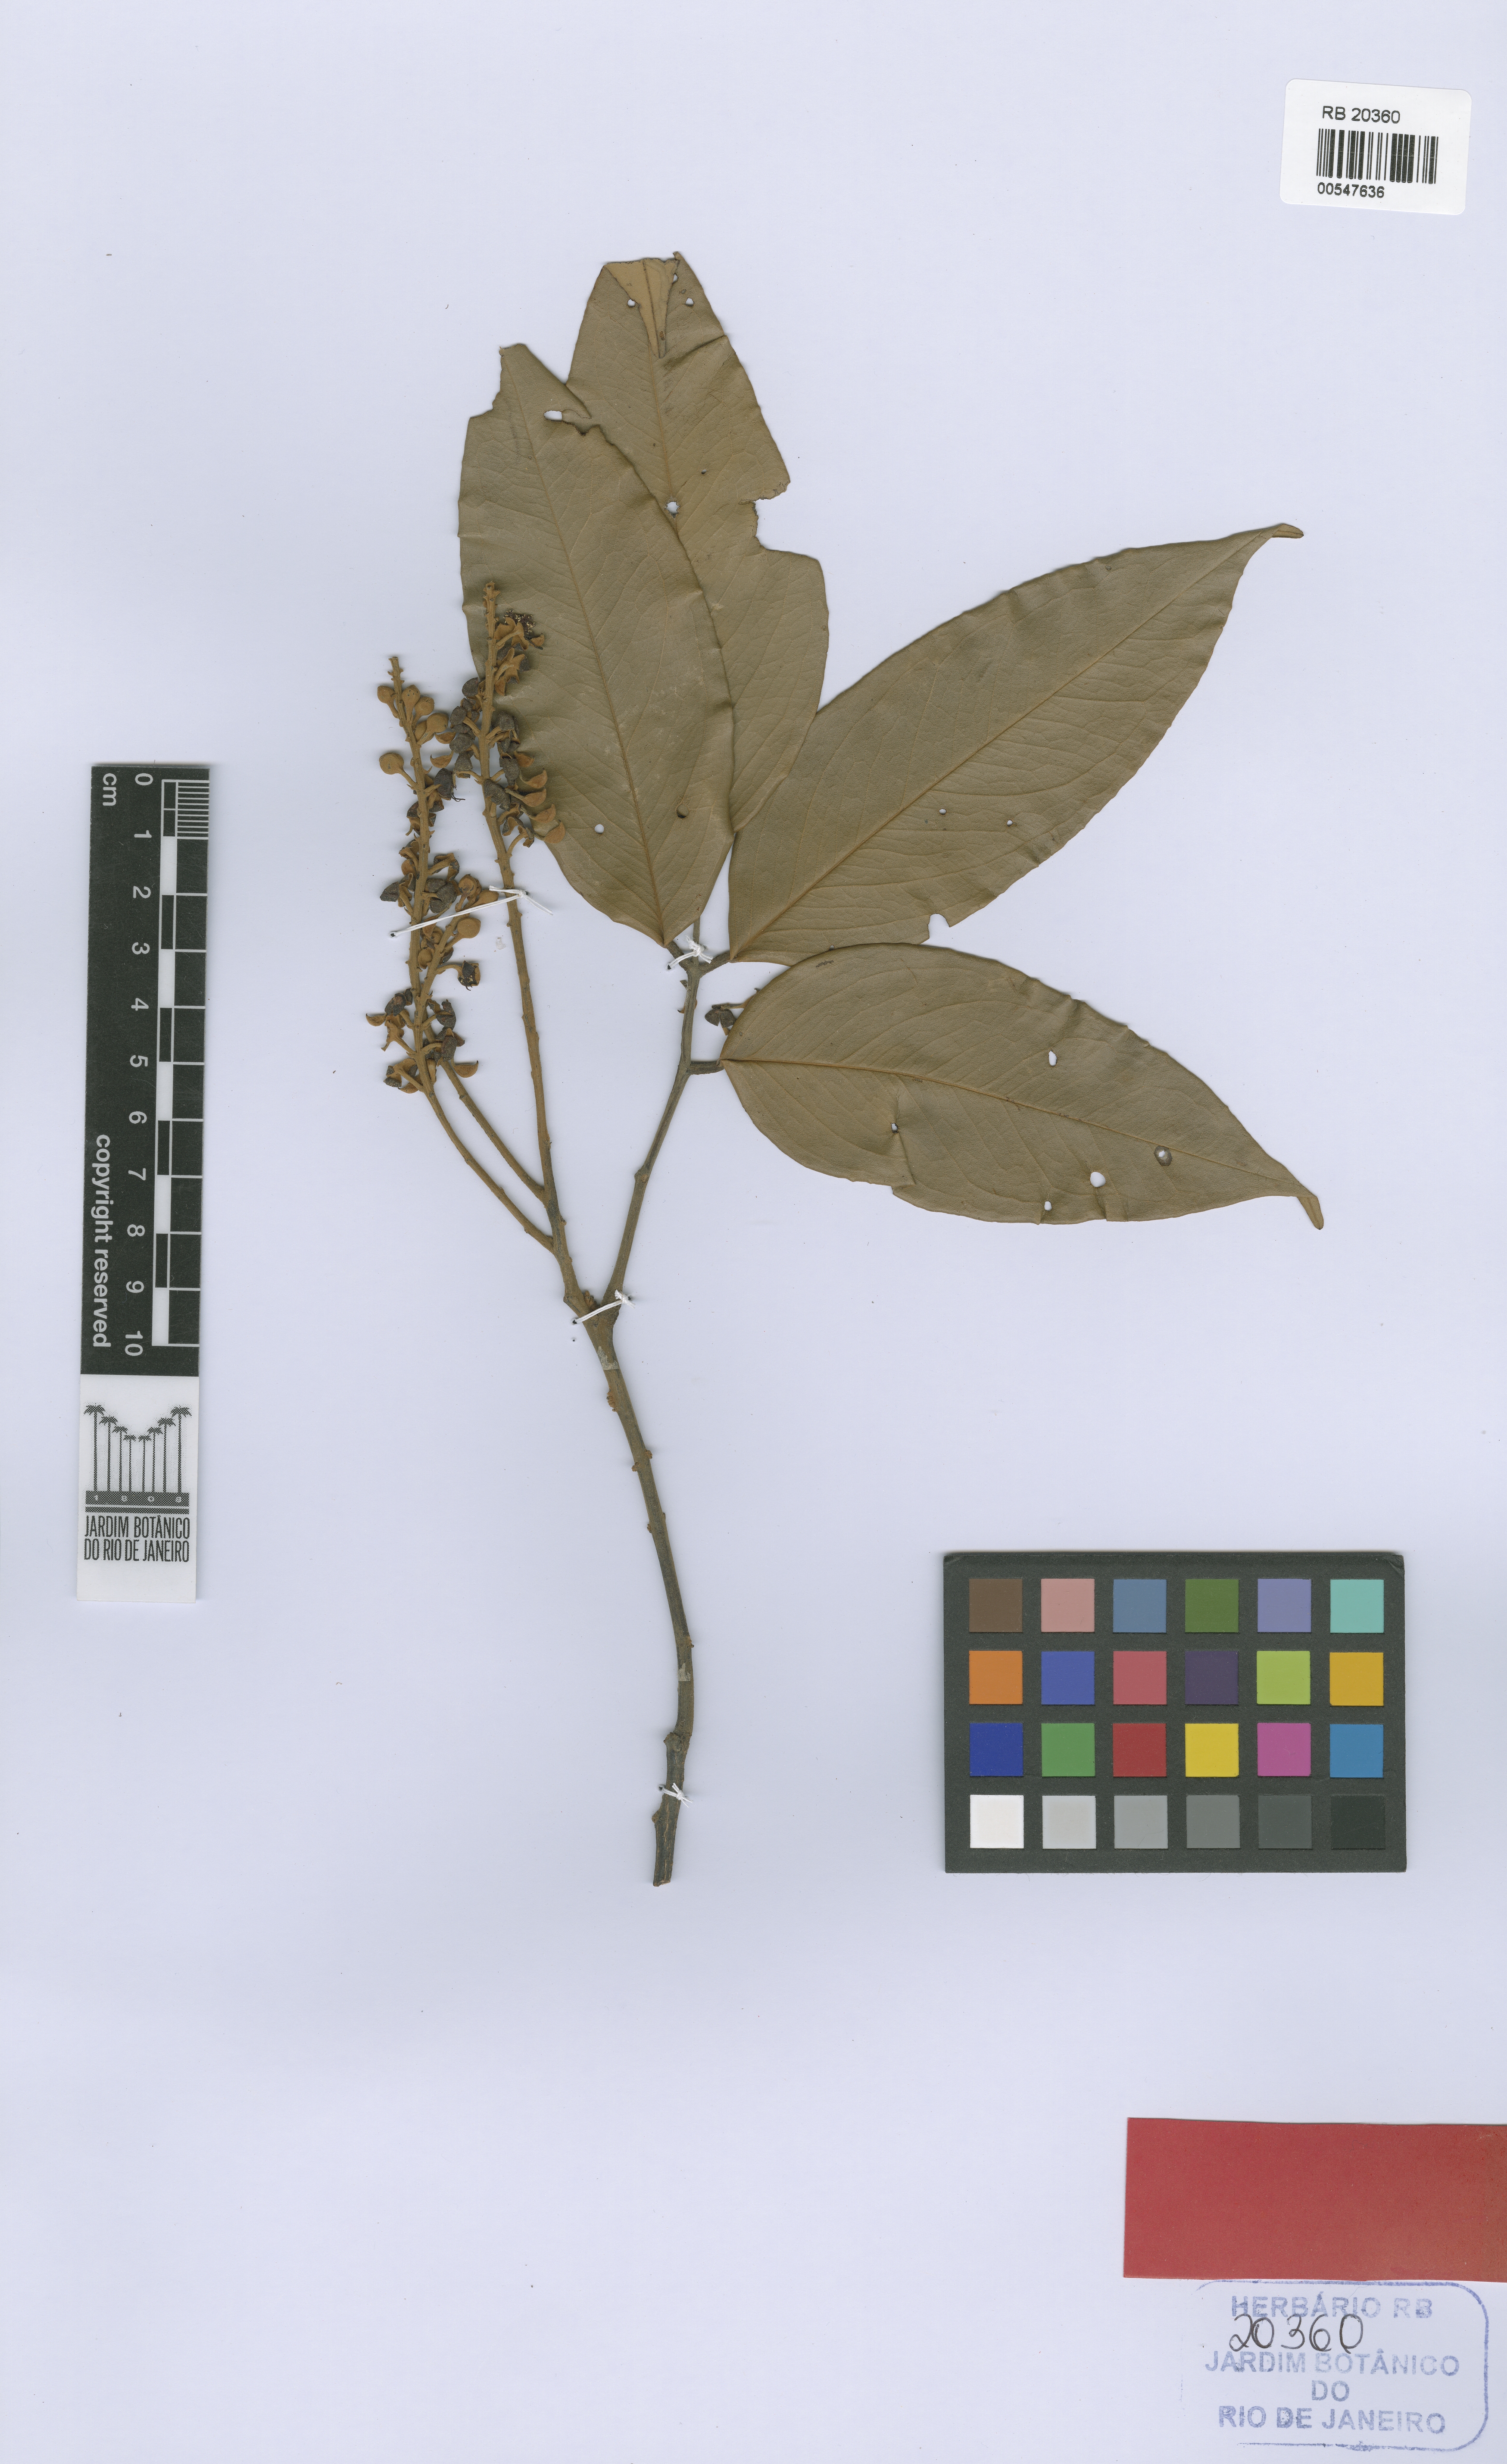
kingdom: Plantae
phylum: Tracheophyta
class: Magnoliopsida
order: Fabales
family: Fabaceae
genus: Swartzia
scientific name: Swartzia tomentifera
